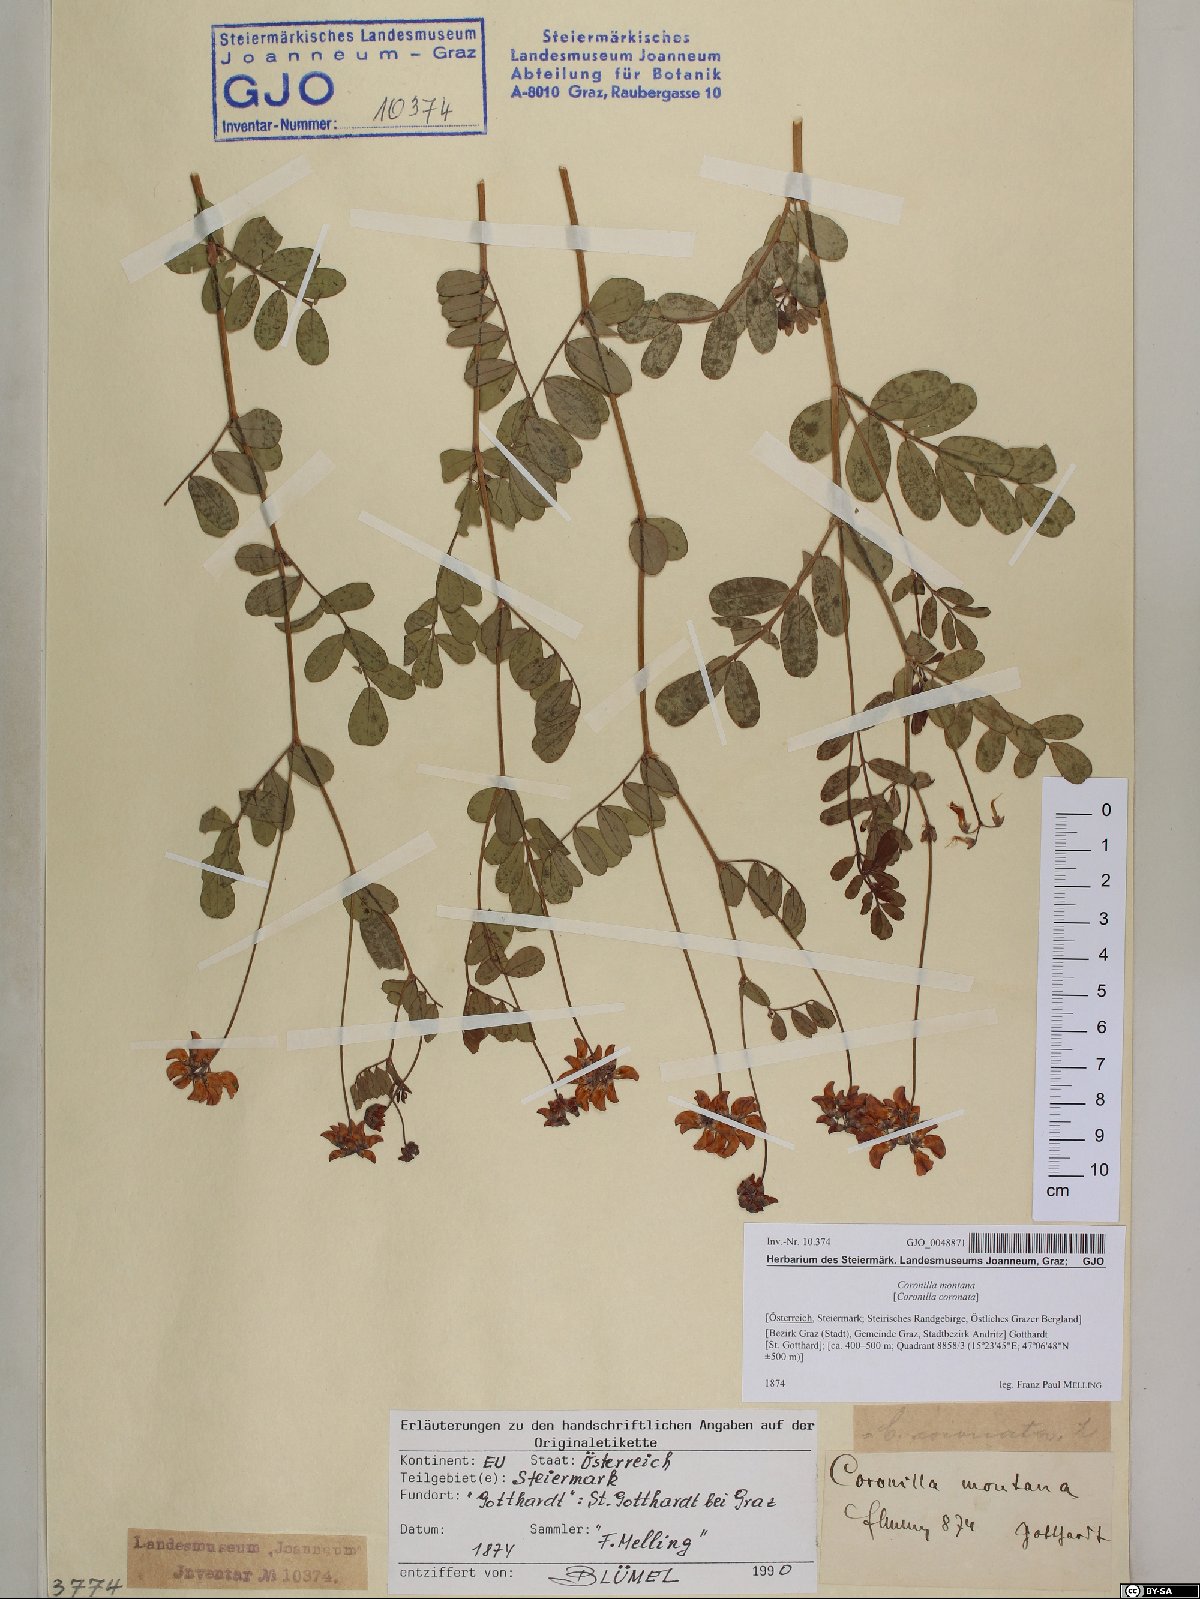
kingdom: Plantae
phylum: Tracheophyta
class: Magnoliopsida
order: Fabales
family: Fabaceae
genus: Coronilla
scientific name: Coronilla coronata
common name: Scorpion-vetch
